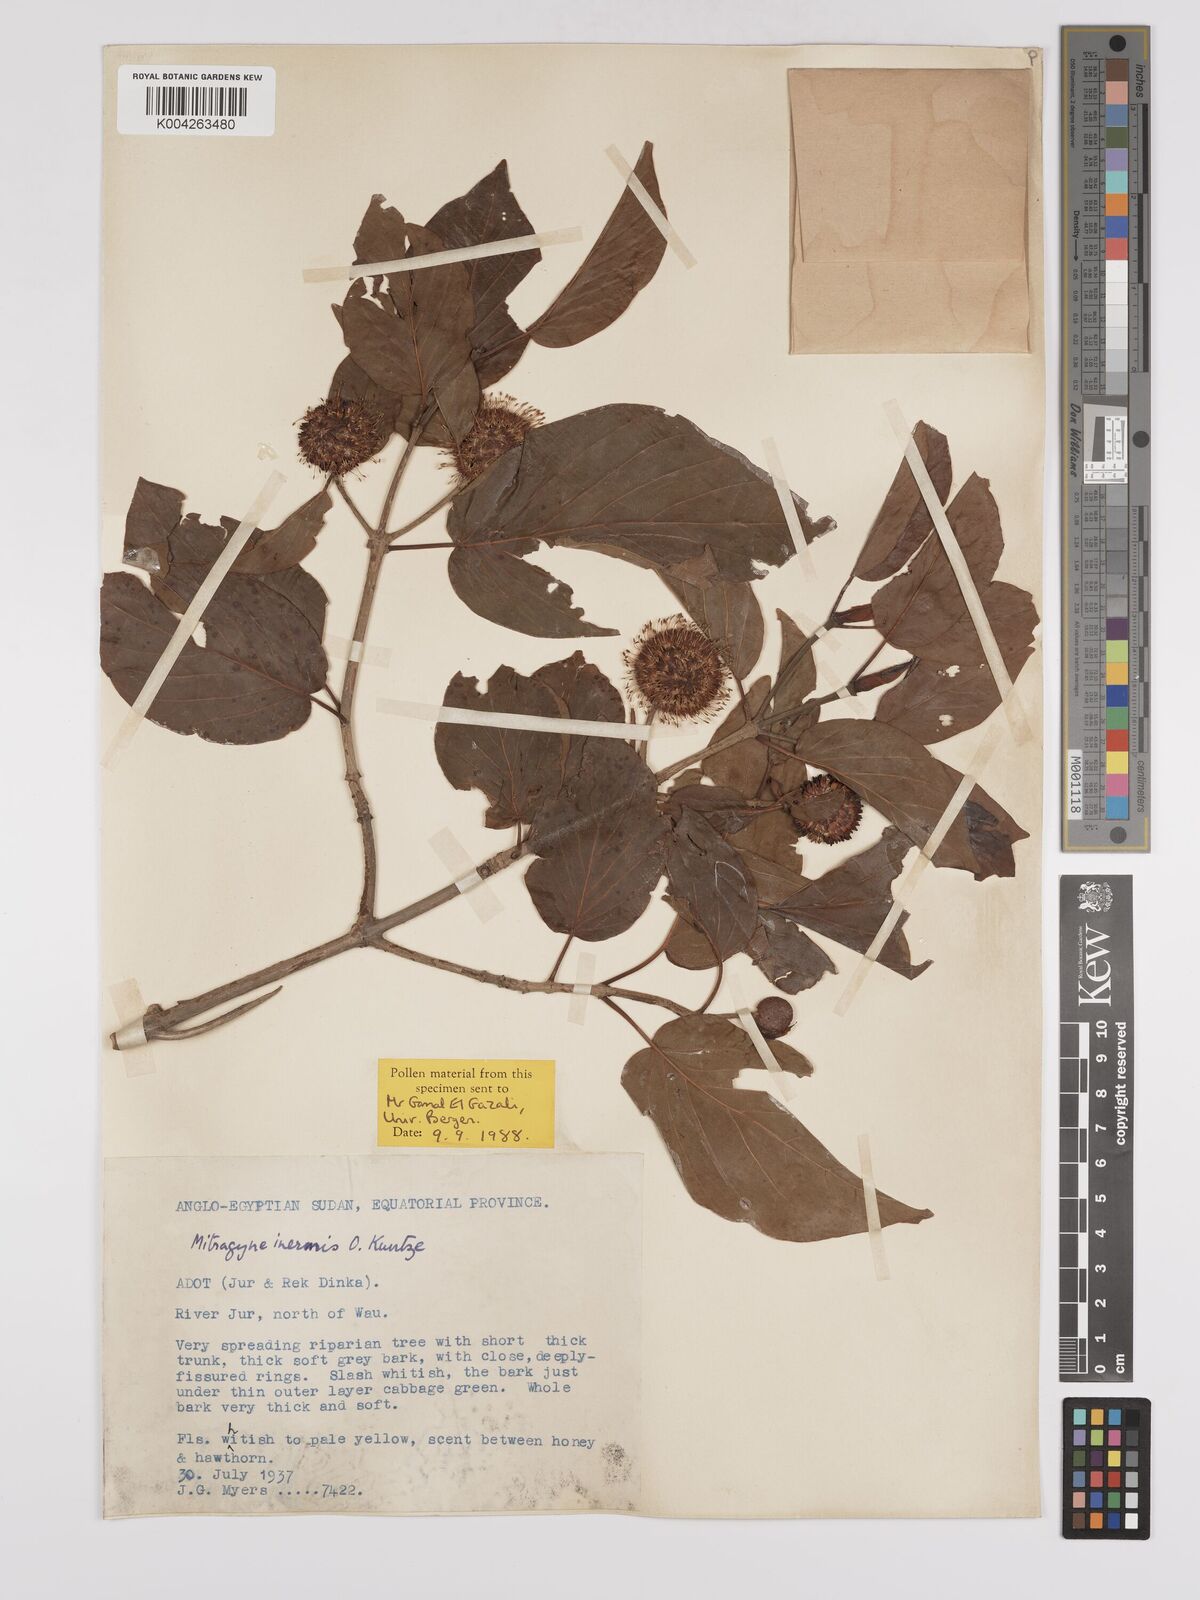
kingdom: Plantae
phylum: Tracheophyta
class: Magnoliopsida
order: Gentianales
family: Rubiaceae
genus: Mitragyna
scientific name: Mitragyna inermis
